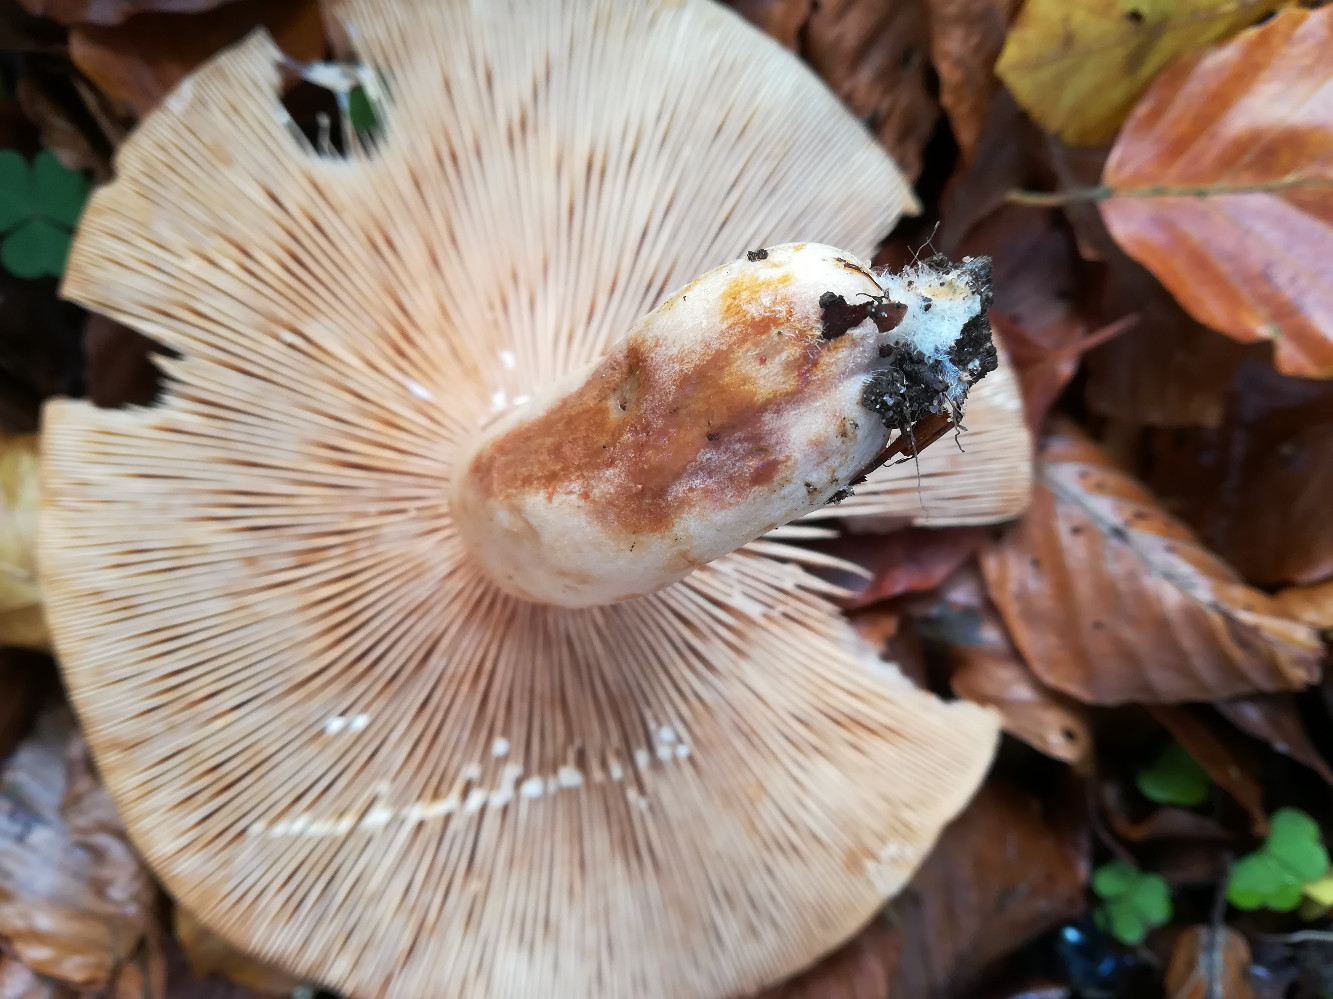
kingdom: Fungi
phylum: Basidiomycota
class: Agaricomycetes
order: Russulales
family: Russulaceae
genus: Lactarius
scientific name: Lactarius pallidus
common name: bleg mælkehat
